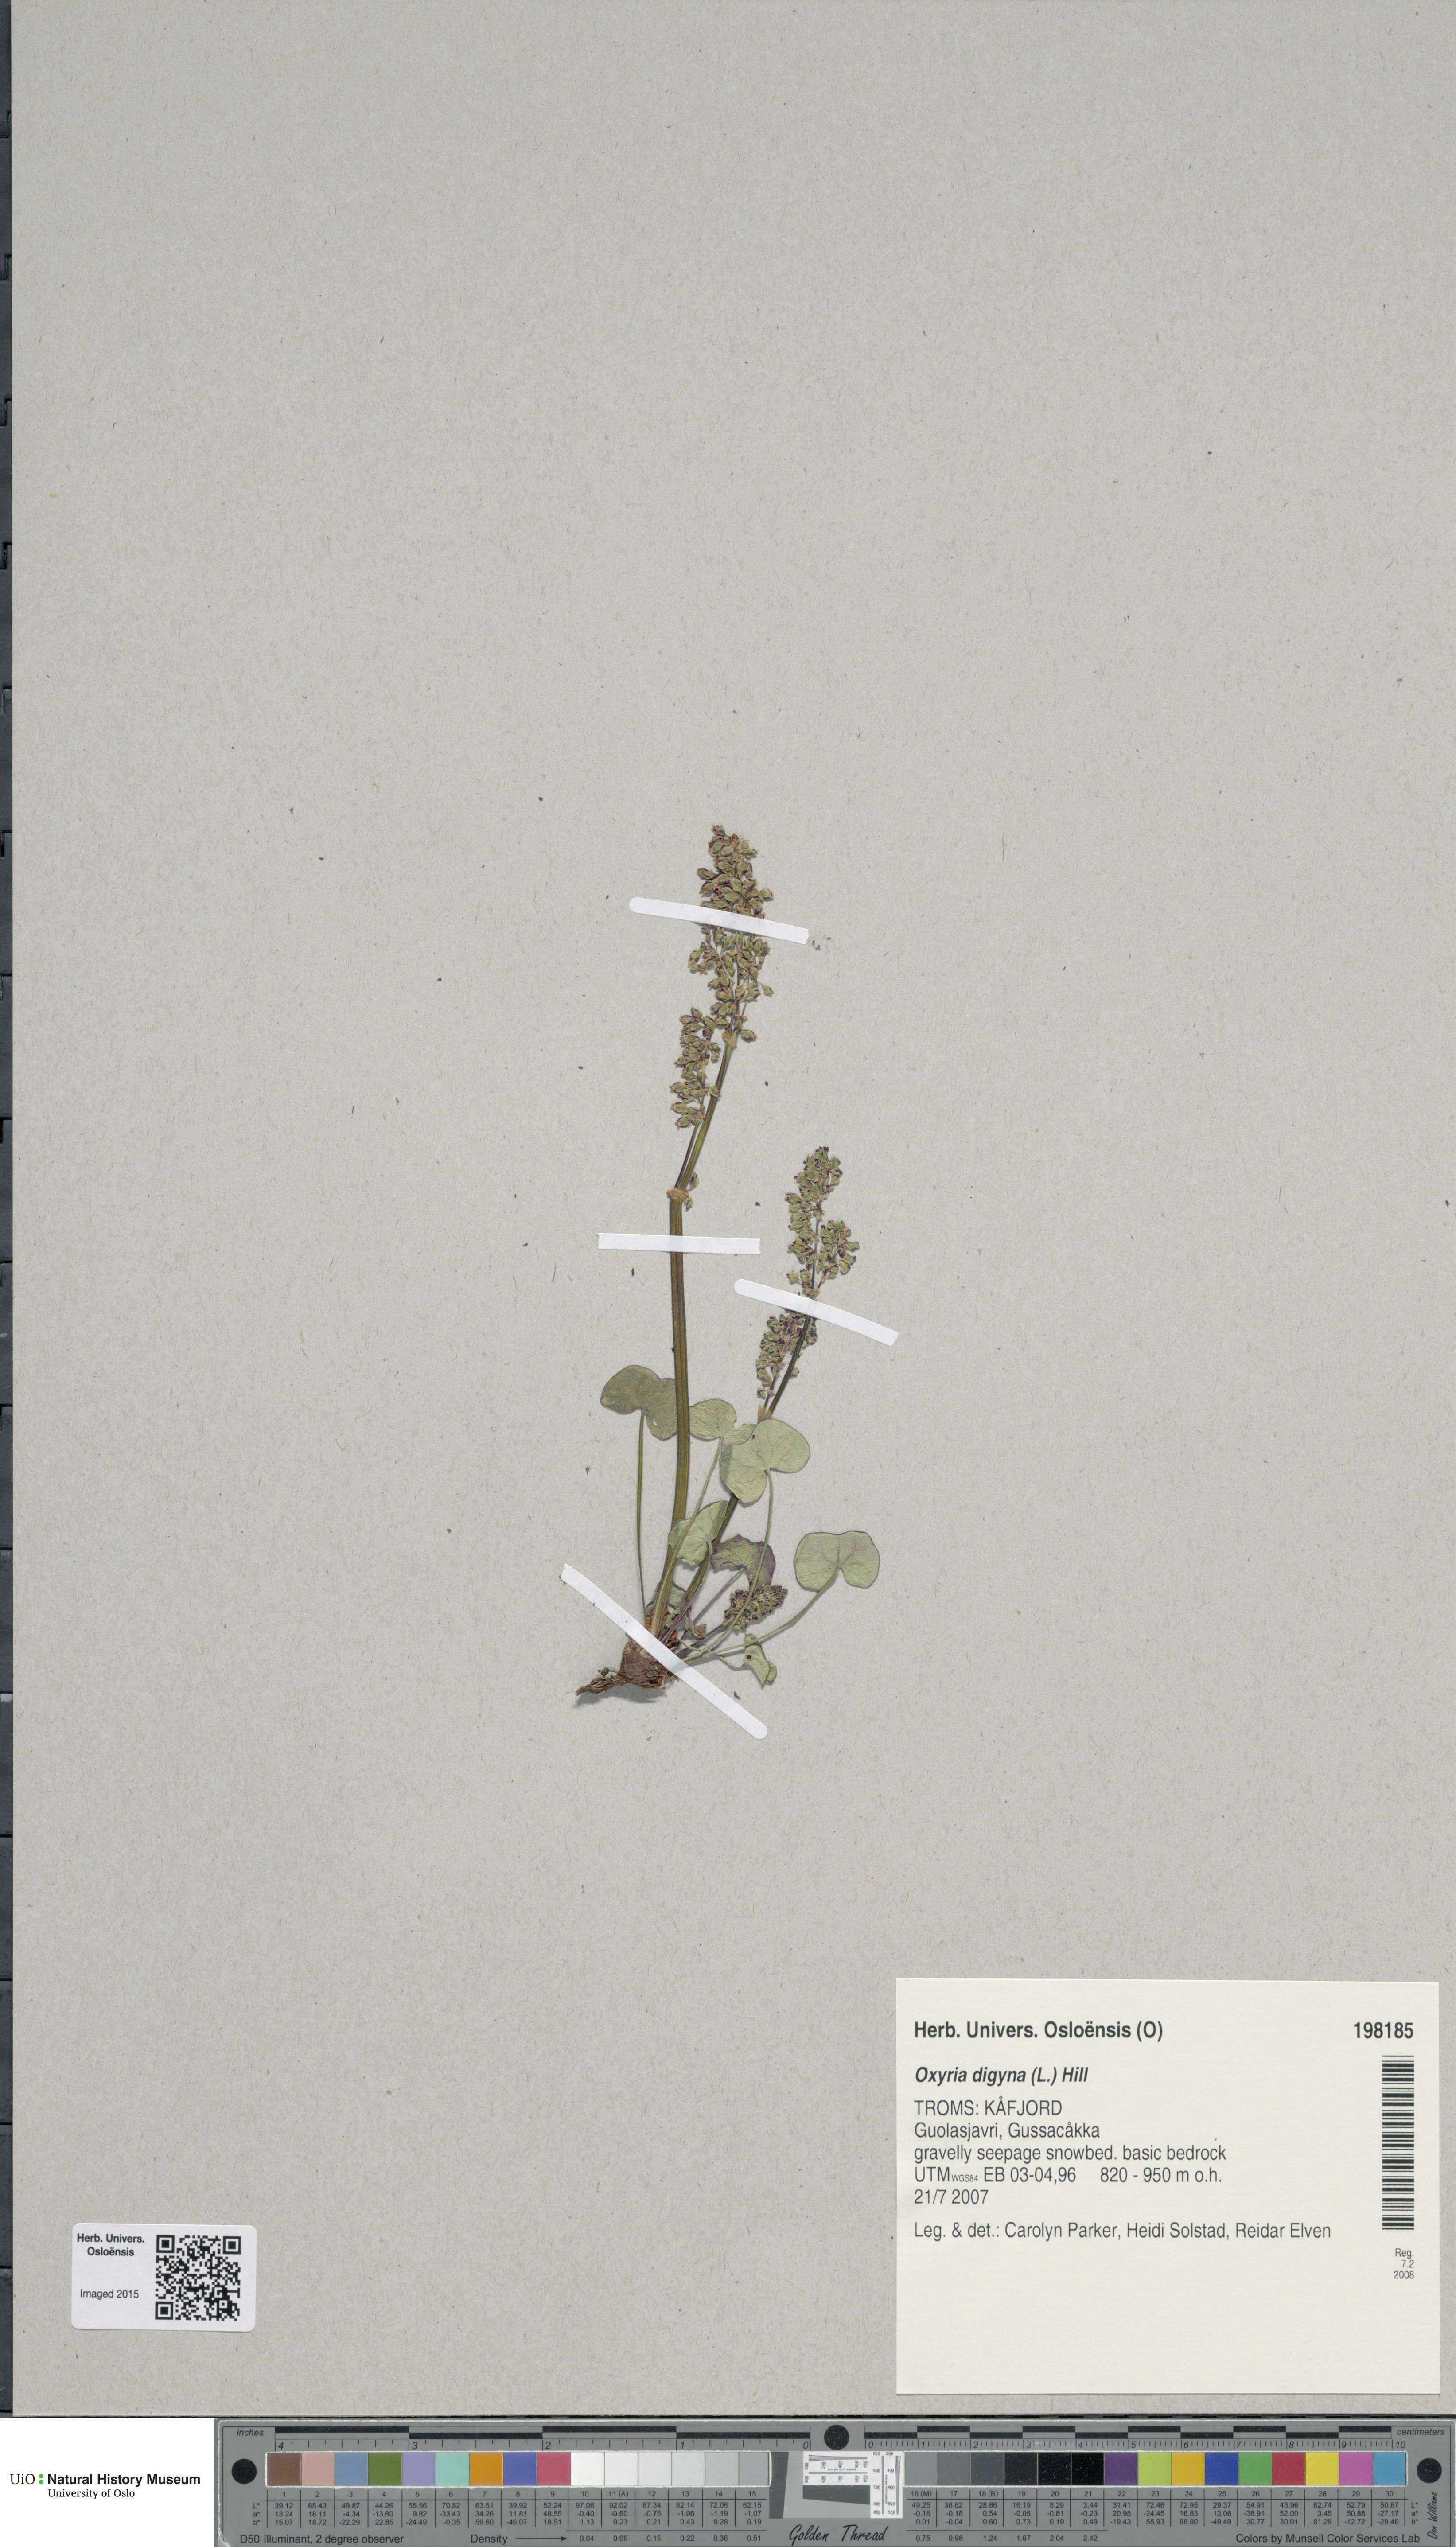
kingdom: Plantae
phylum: Tracheophyta
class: Magnoliopsida
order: Caryophyllales
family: Polygonaceae
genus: Oxyria
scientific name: Oxyria digyna
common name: Alpine mountain-sorrel
